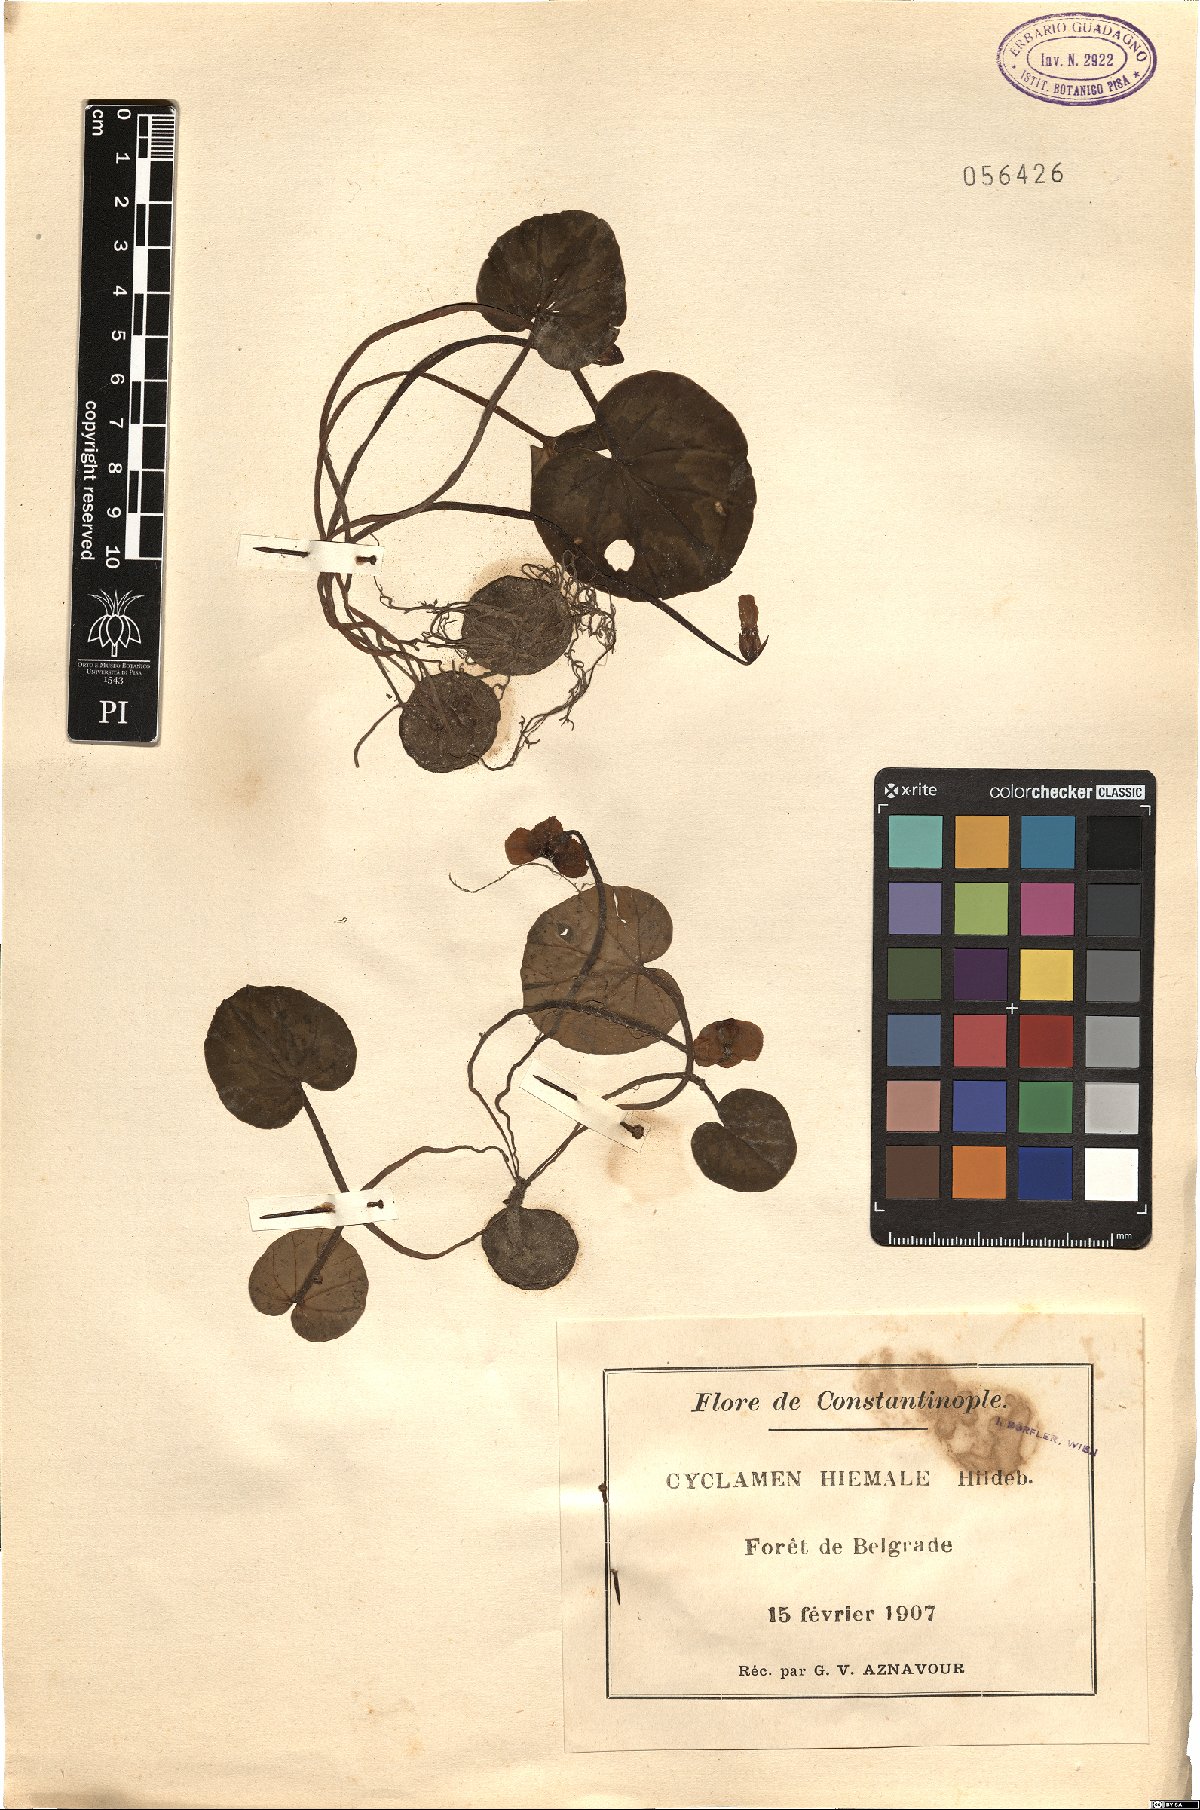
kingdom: Plantae
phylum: Tracheophyta
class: Magnoliopsida
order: Ericales
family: Primulaceae
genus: Cyclamen
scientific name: Cyclamen coum
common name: Eastern sowbread
